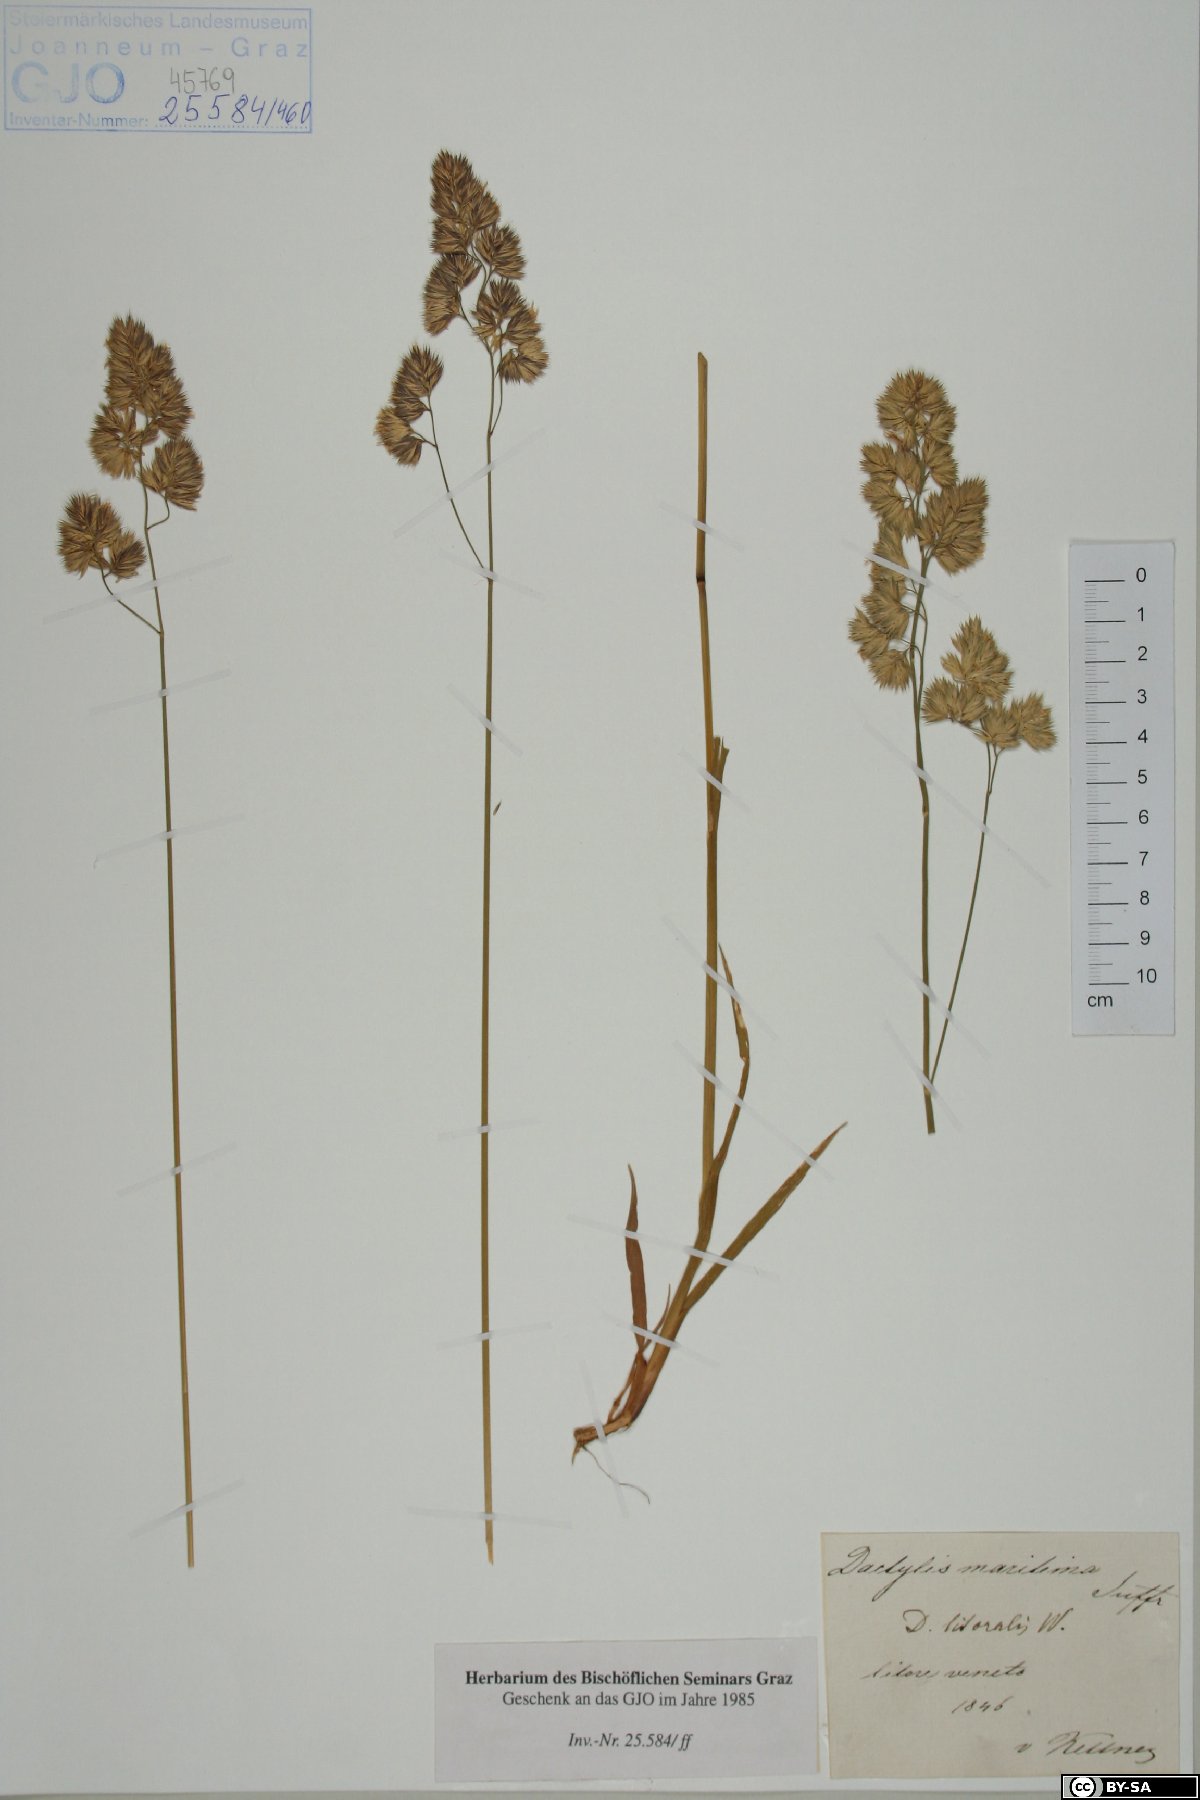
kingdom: Plantae
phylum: Tracheophyta
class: Liliopsida
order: Poales
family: Poaceae
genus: Aeluropus
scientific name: Aeluropus littoralis
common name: Indian walnut
